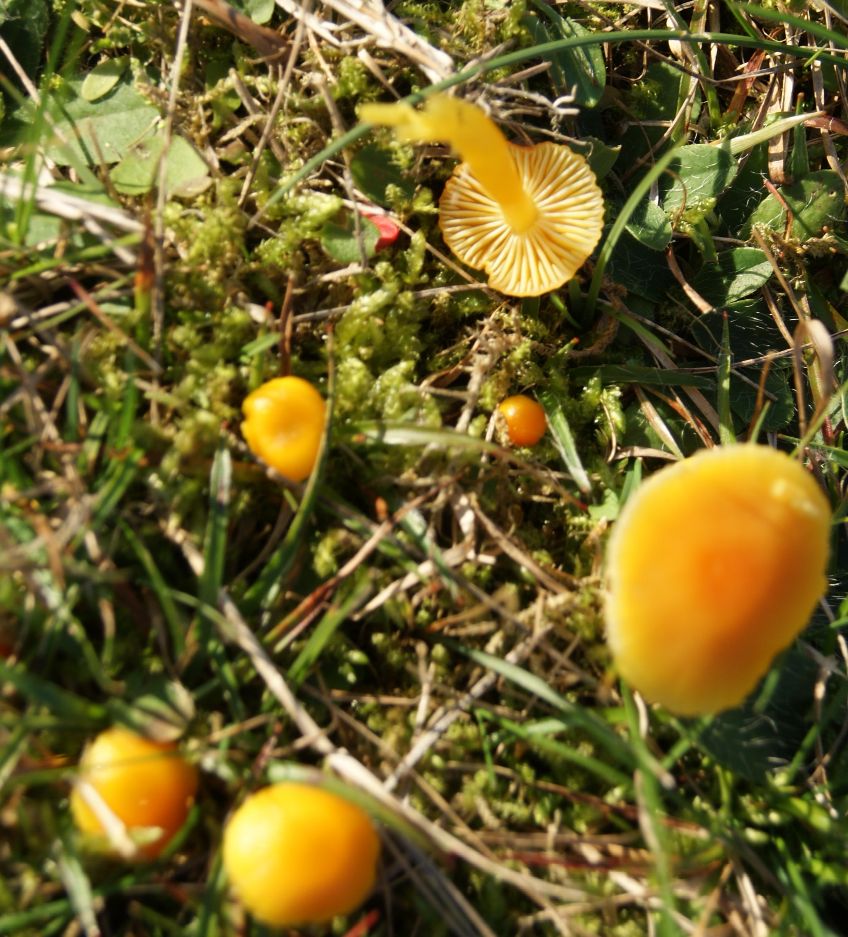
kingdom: Fungi
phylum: Basidiomycota
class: Agaricomycetes
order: Agaricales
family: Hygrophoraceae
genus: Hygrocybe
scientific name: Hygrocybe ceracea
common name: voksgul vokshat
